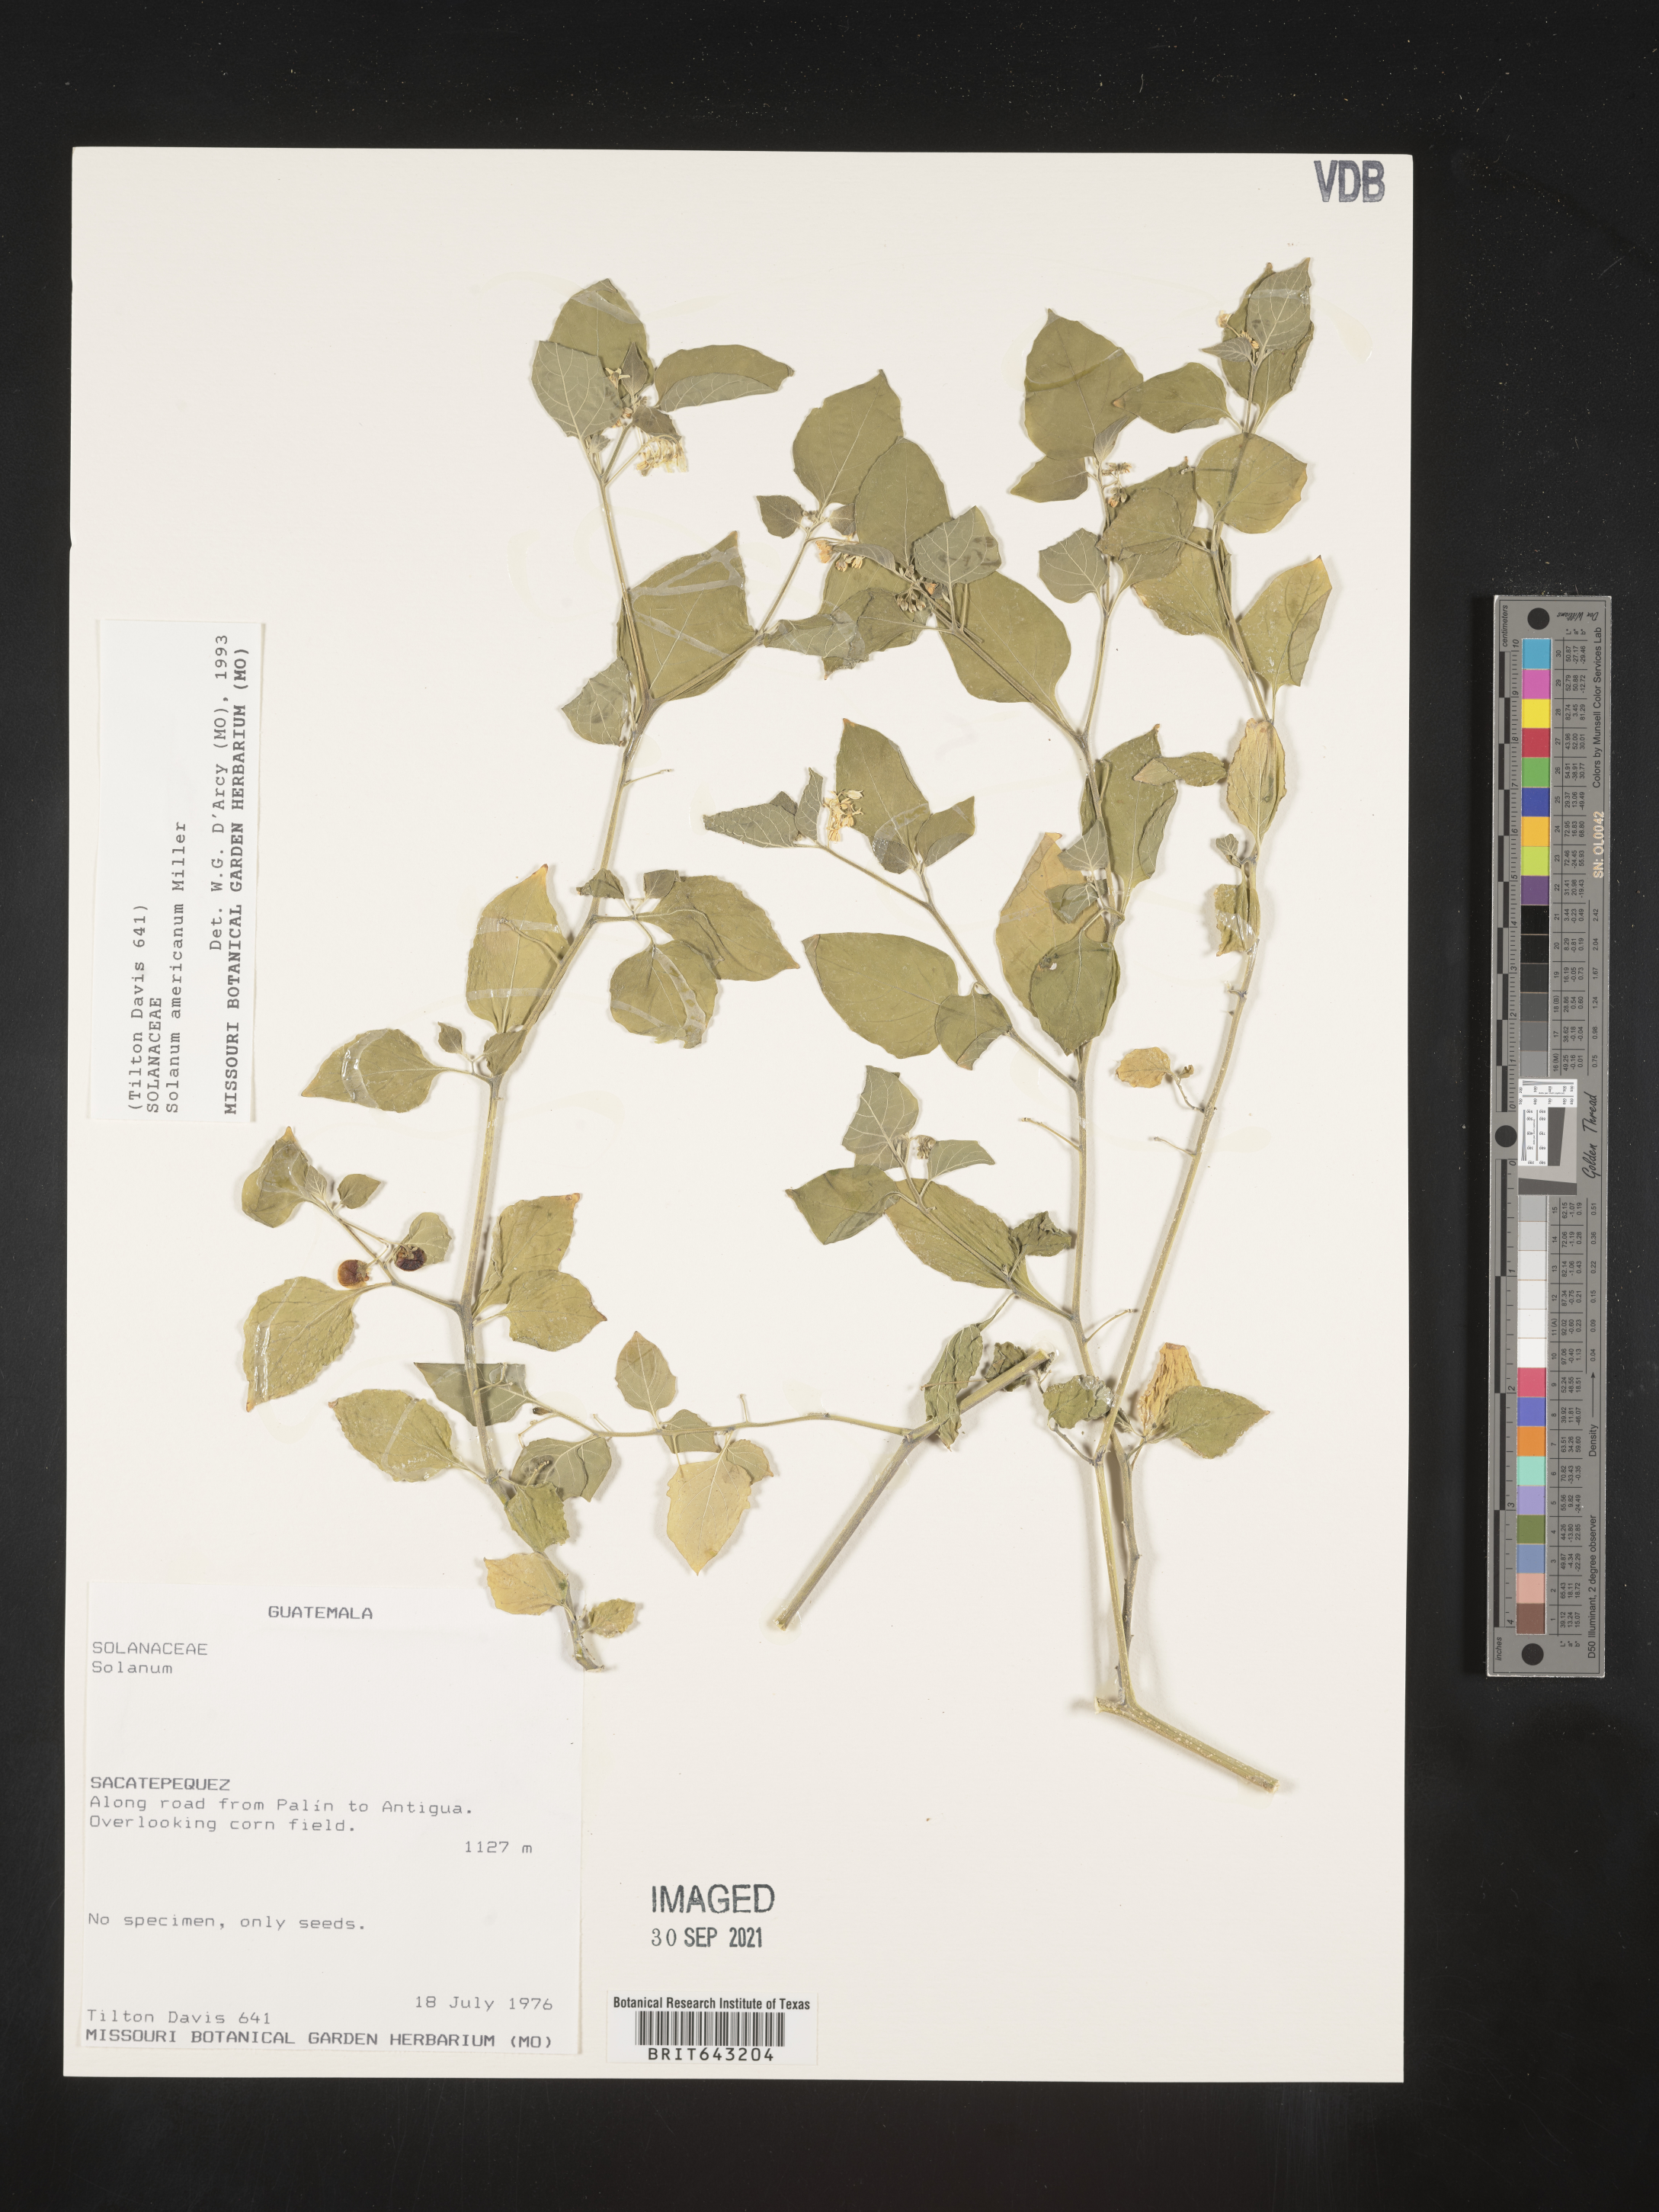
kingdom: Plantae
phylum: Tracheophyta
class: Magnoliopsida
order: Solanales
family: Solanaceae
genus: Solanum
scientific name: Solanum
